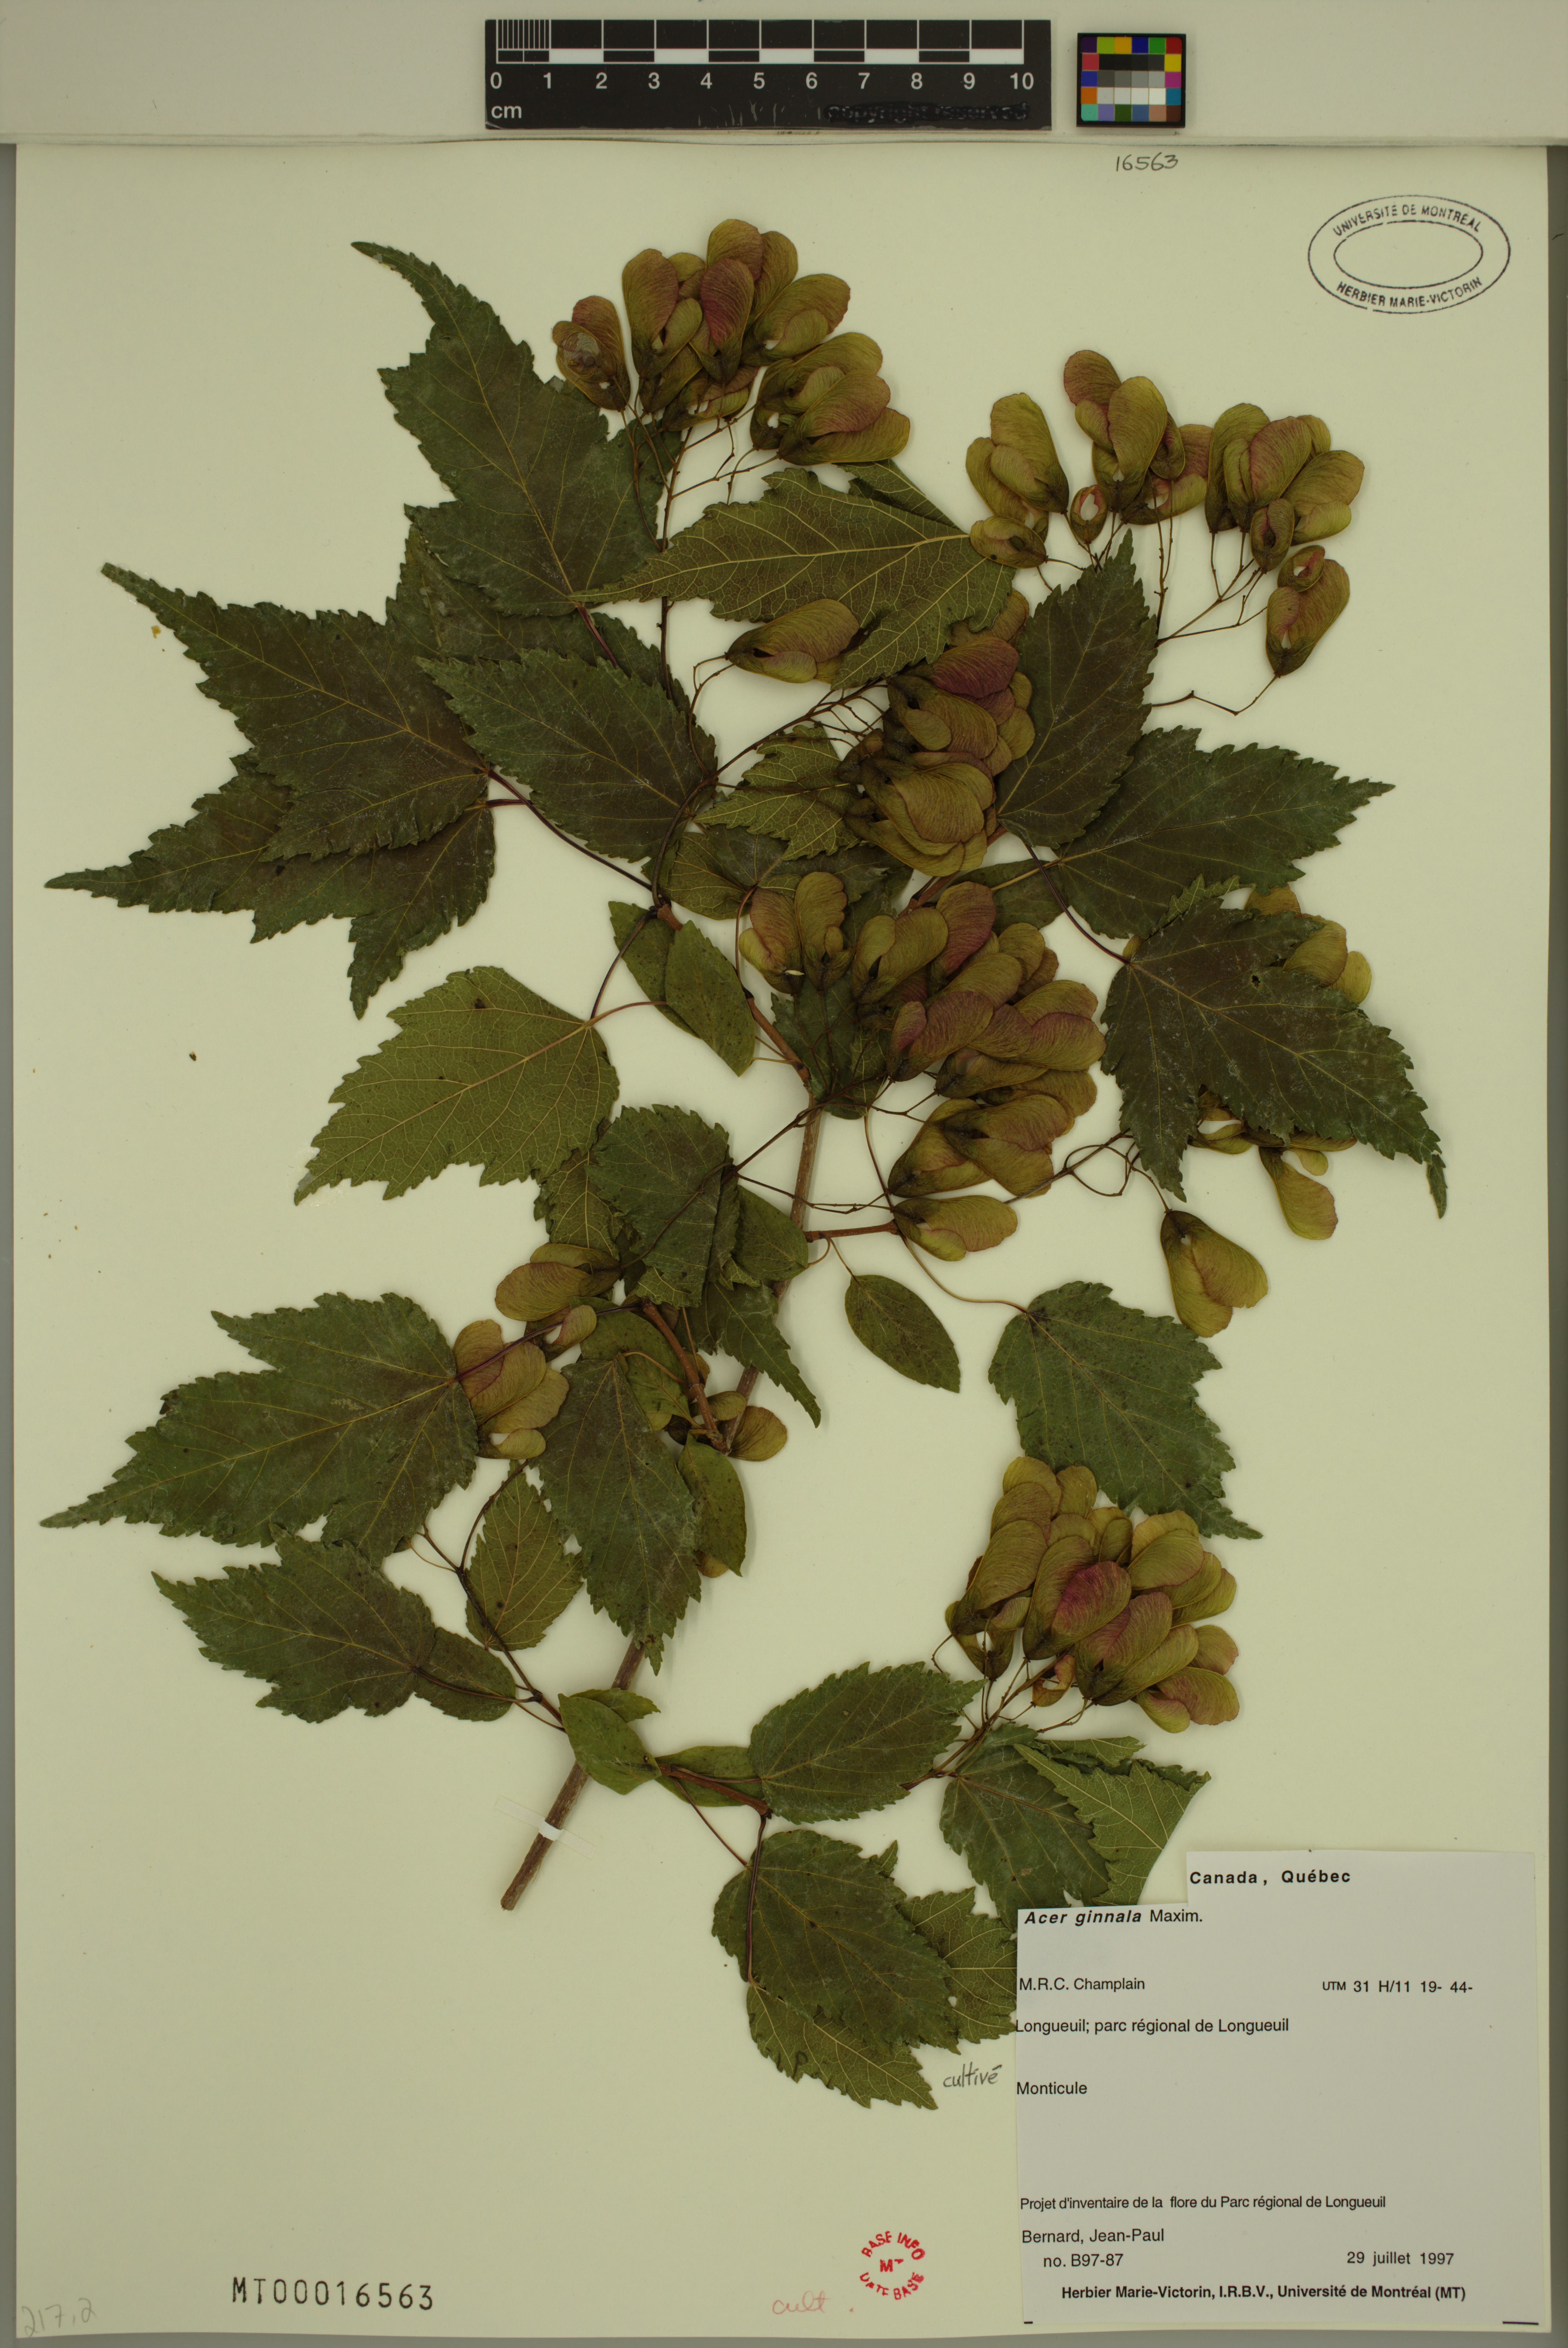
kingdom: Plantae
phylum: Tracheophyta
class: Magnoliopsida
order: Sapindales
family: Sapindaceae
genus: Acer
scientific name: Acer tataricum
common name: Tartar maple
